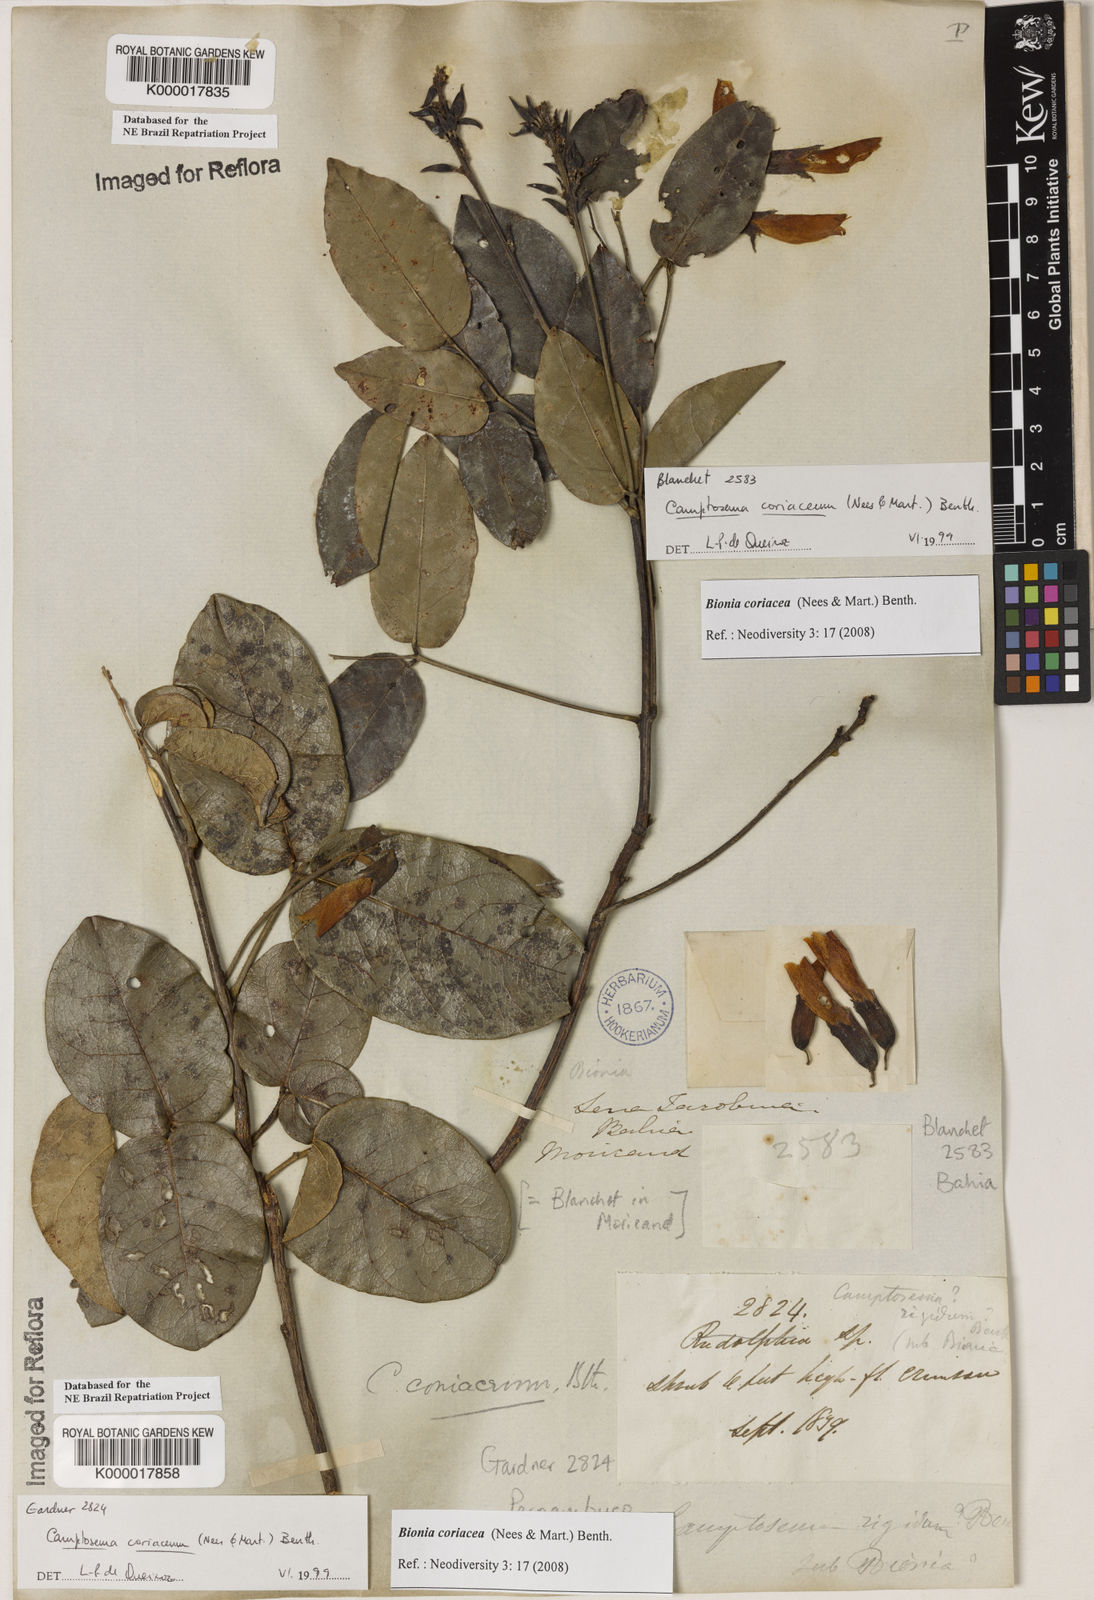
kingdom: Plantae
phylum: Tracheophyta
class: Magnoliopsida
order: Fabales
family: Fabaceae
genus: Camptosema
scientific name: Camptosema coriaceum
